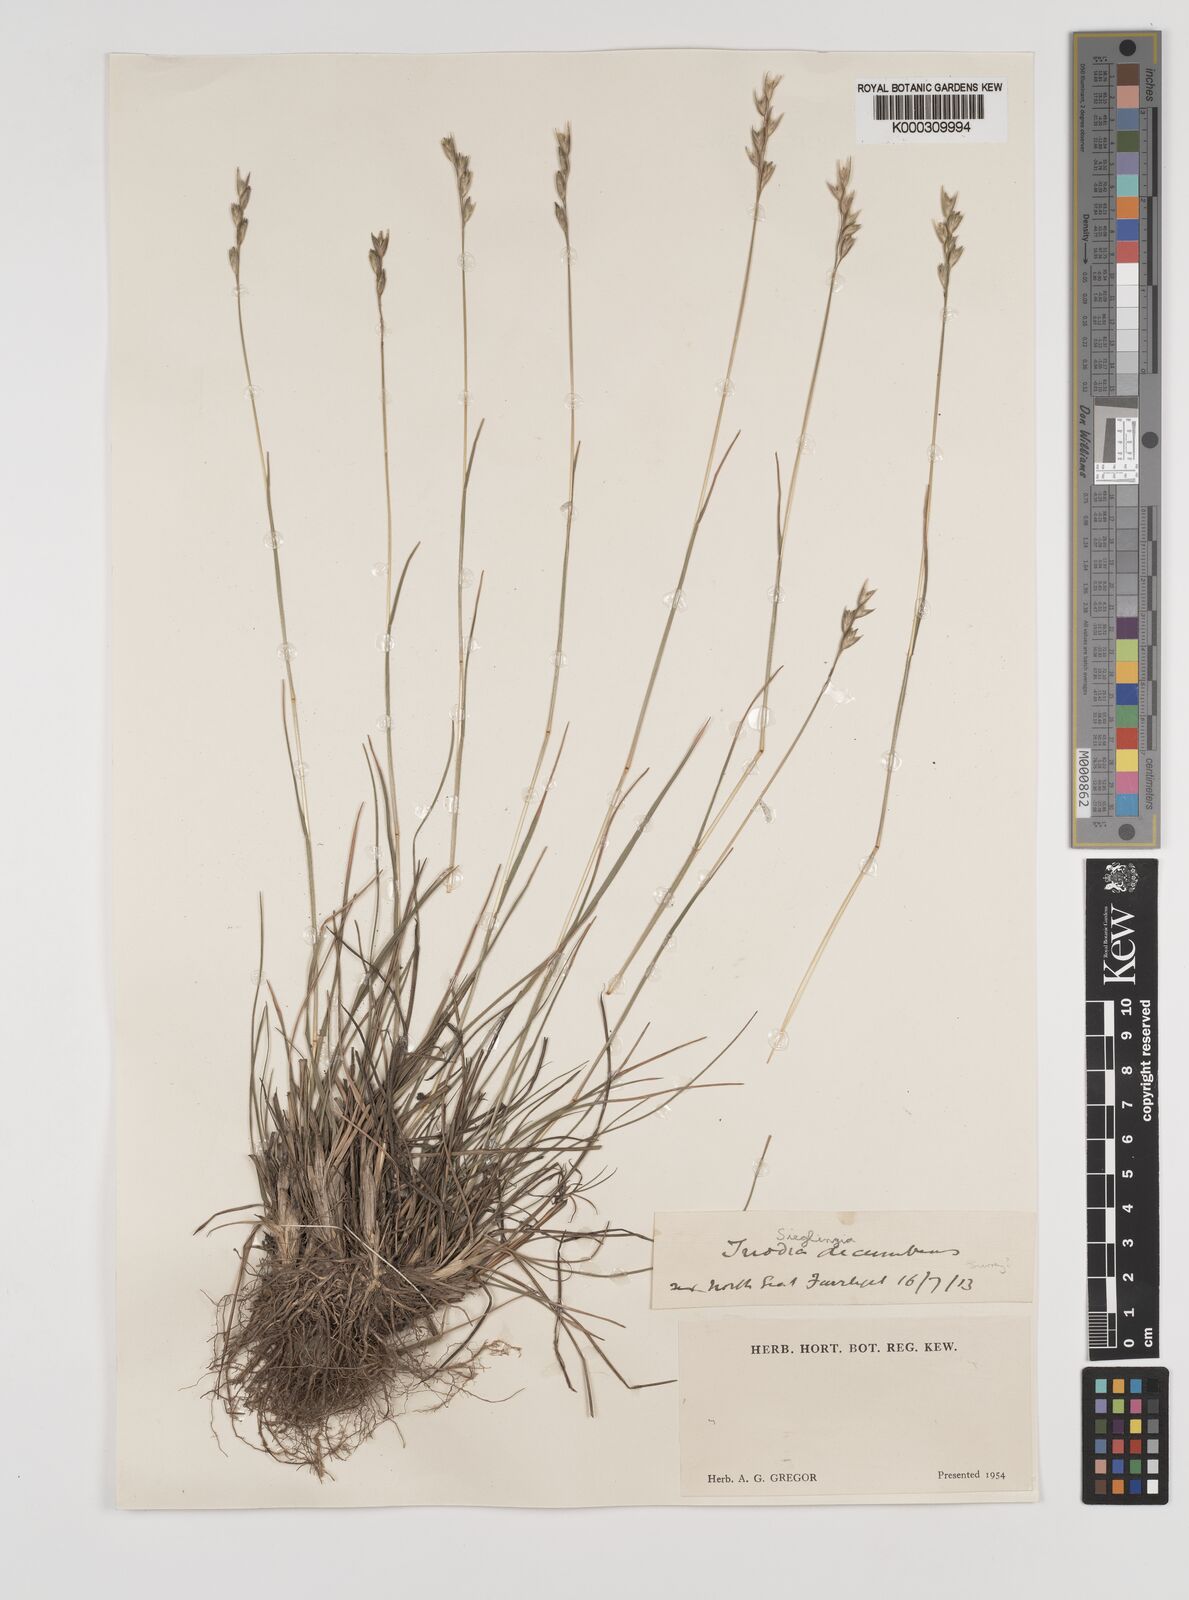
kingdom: Plantae
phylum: Tracheophyta
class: Liliopsida
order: Poales
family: Poaceae
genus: Danthonia
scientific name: Danthonia decumbens
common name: Common heathgrass
